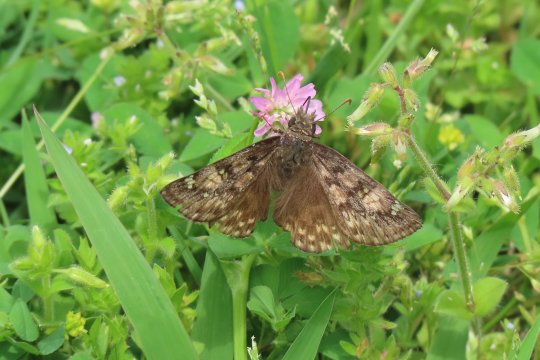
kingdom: Animalia
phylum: Arthropoda
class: Insecta
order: Lepidoptera
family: Hesperiidae
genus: Gesta
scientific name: Gesta
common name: Juvenal's Duskywing
